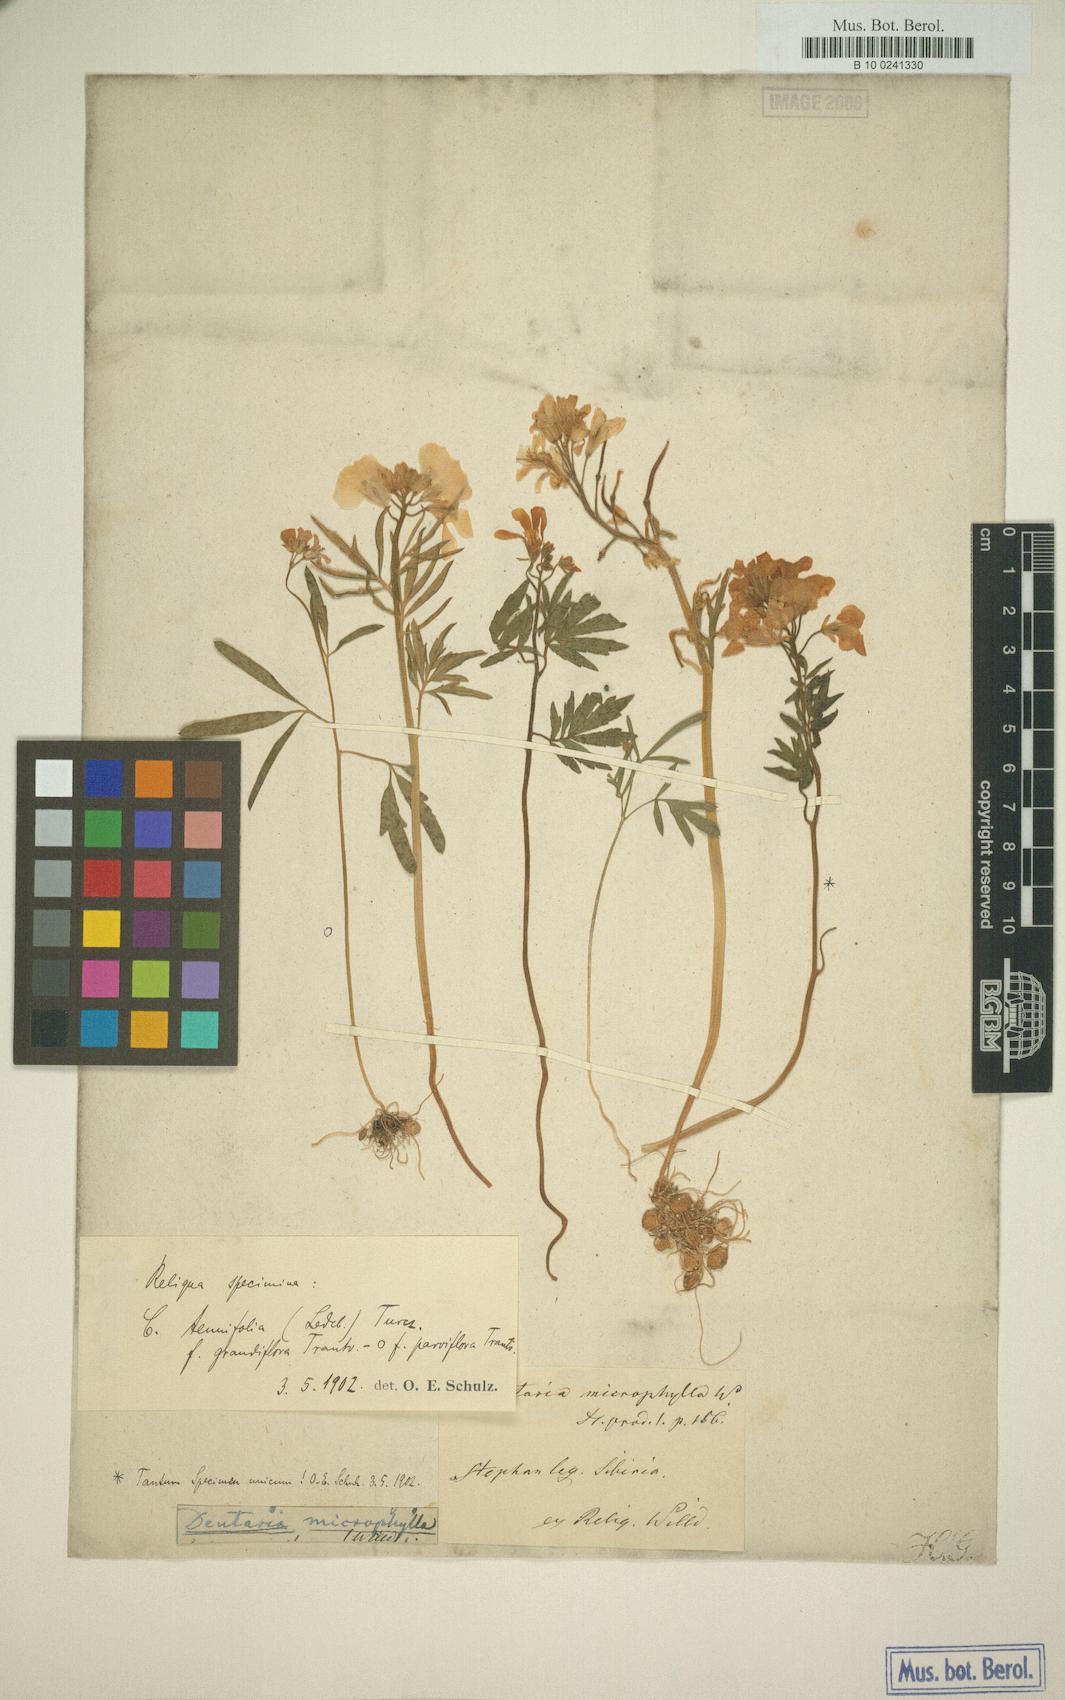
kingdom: Plantae
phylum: Tracheophyta
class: Magnoliopsida
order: Brassicales
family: Brassicaceae
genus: Cardamine
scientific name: Cardamine trifida
